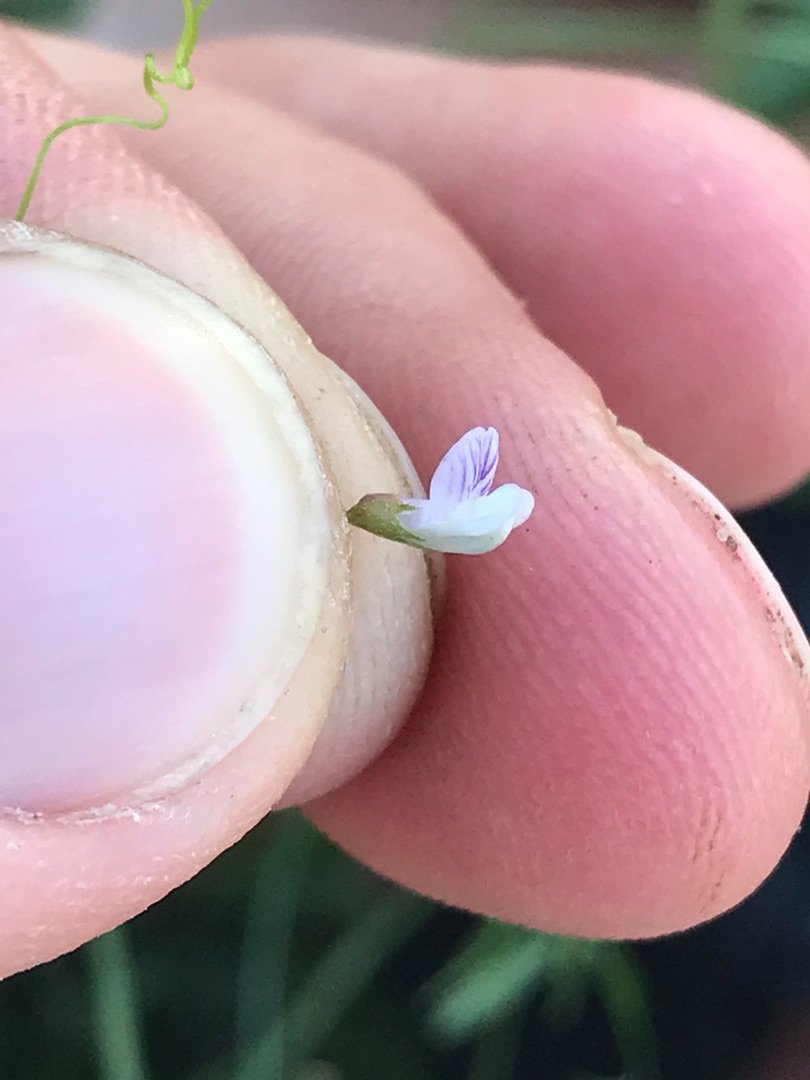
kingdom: Plantae
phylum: Tracheophyta
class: Magnoliopsida
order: Fabales
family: Fabaceae
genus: Vicia
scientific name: Vicia tetrasperma
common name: Tadder-vikke
